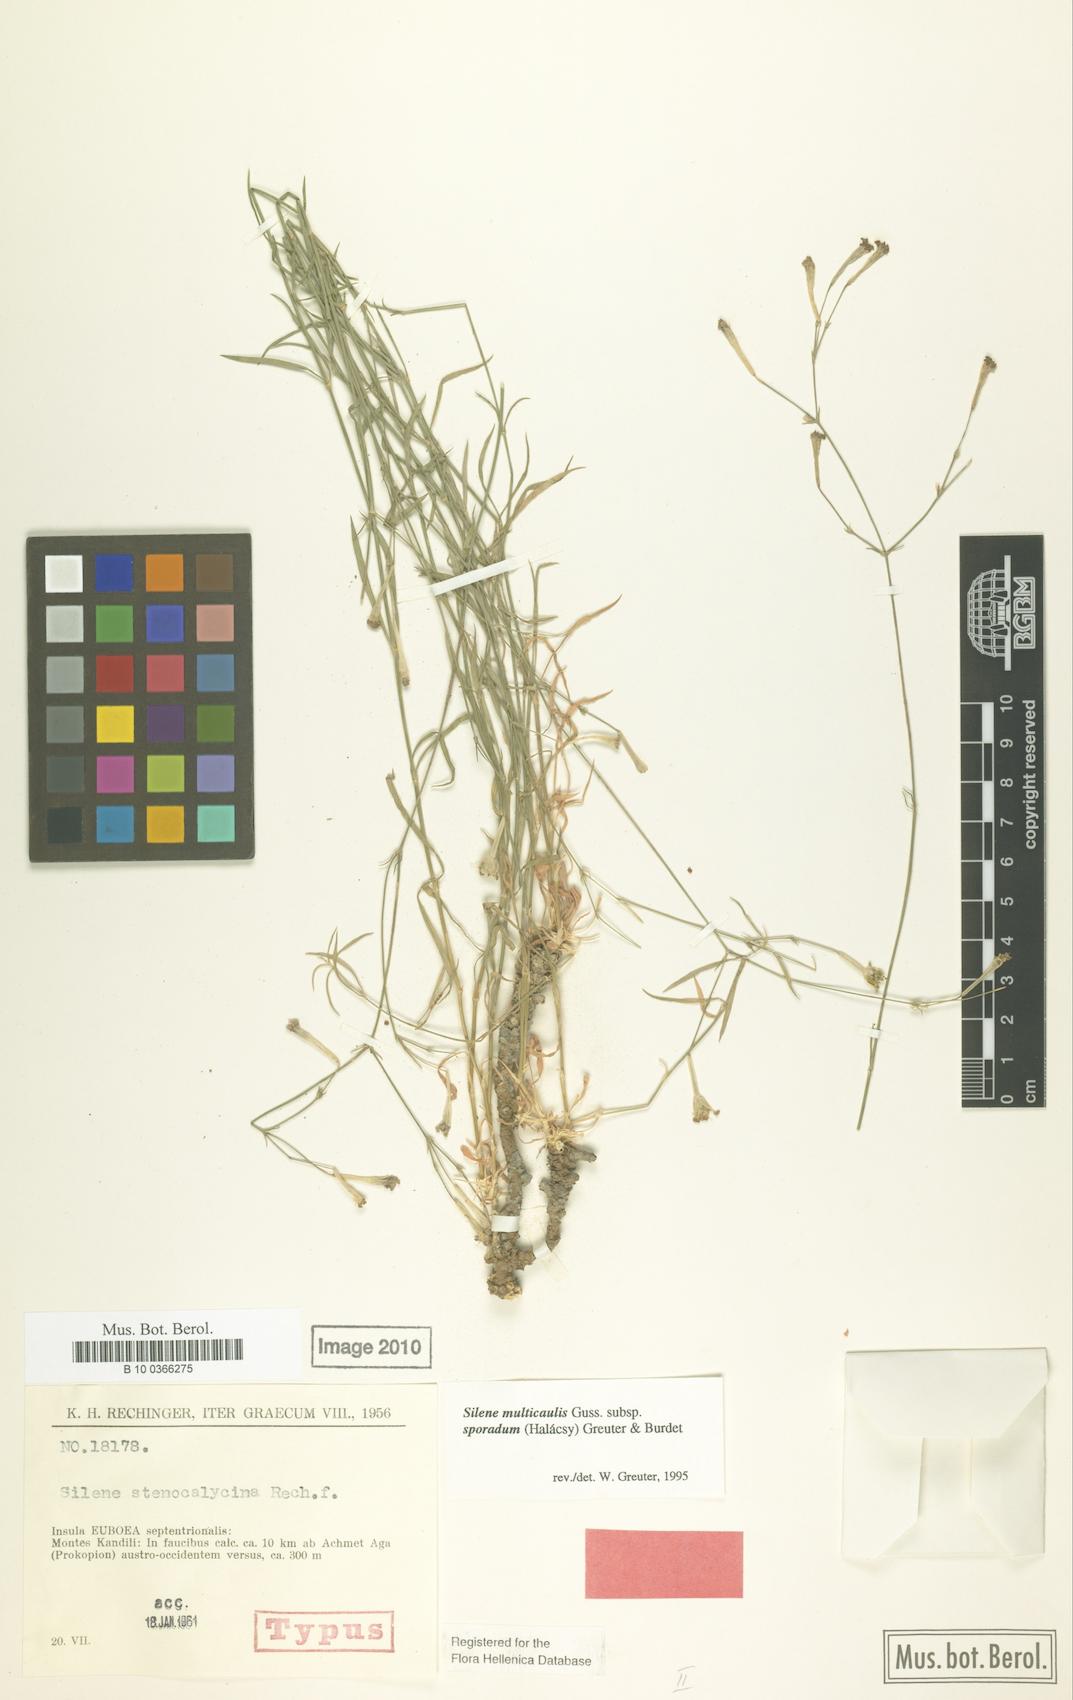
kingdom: Plantae
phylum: Tracheophyta
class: Magnoliopsida
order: Caryophyllales
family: Caryophyllaceae
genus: Silene
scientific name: Silene multicaulis
